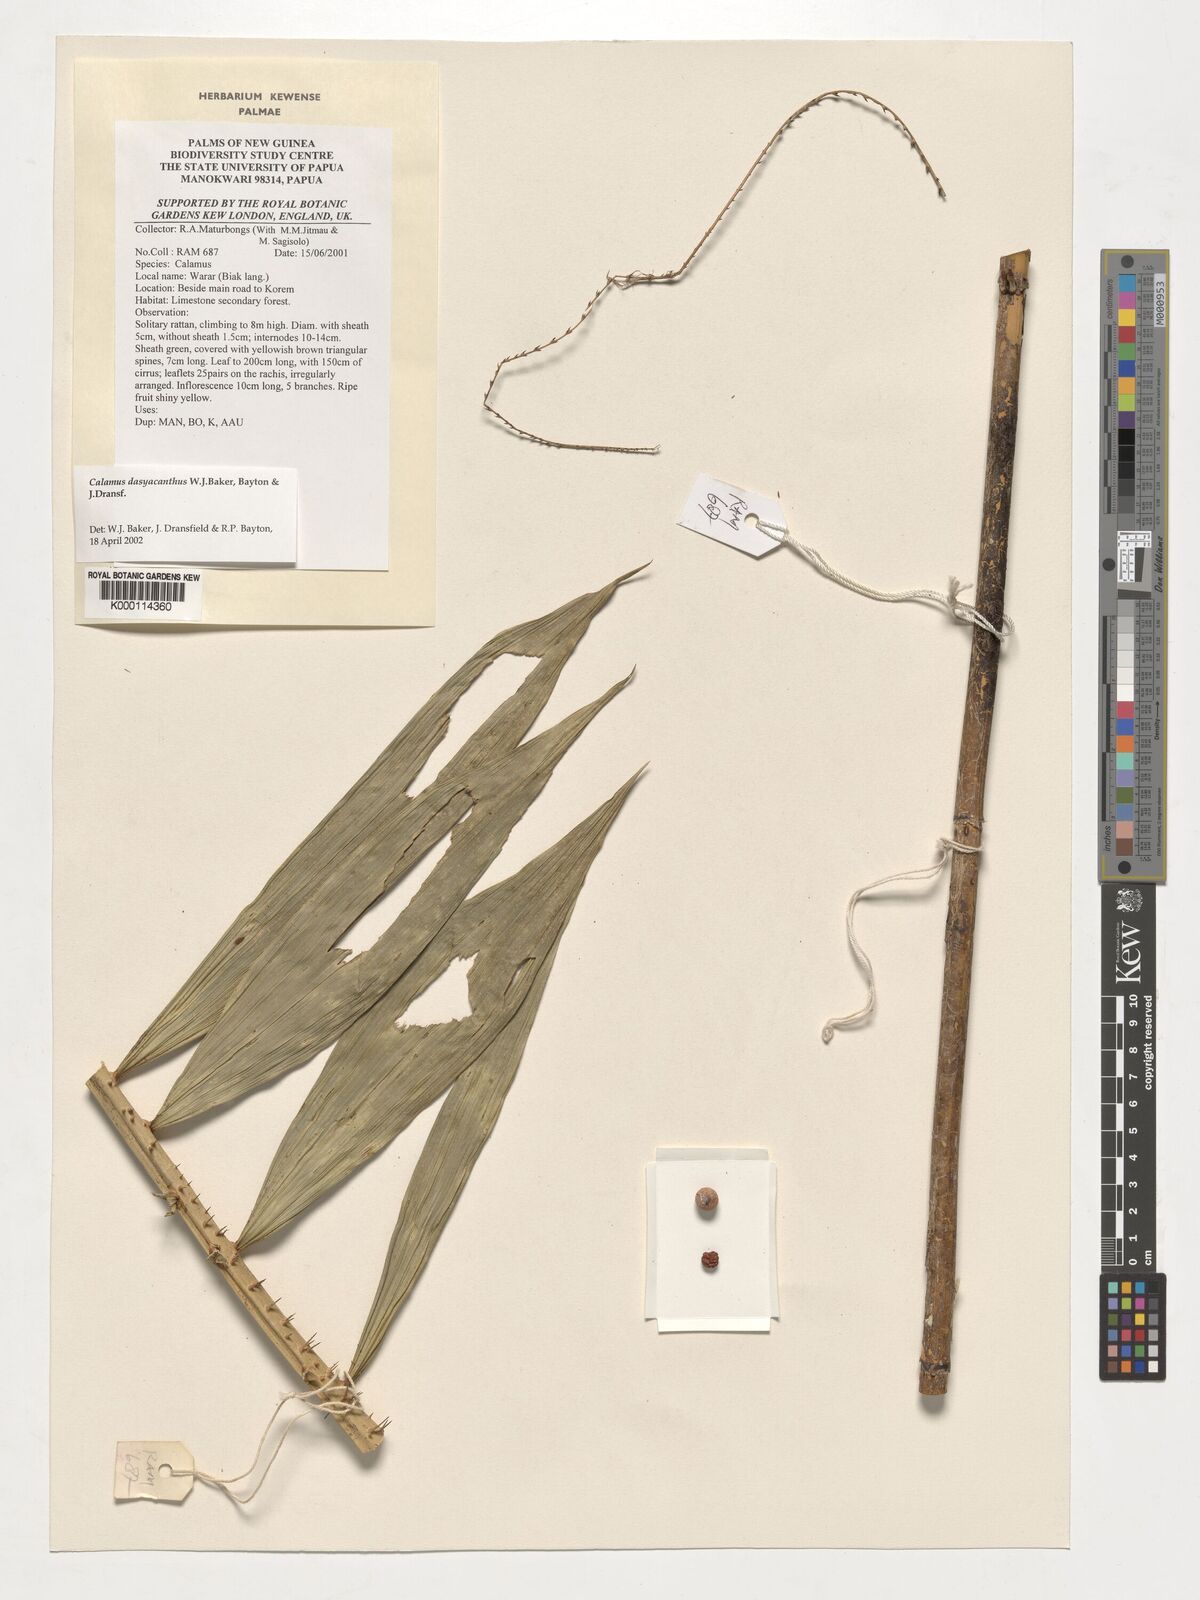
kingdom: Plantae
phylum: Tracheophyta
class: Liliopsida
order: Arecales
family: Arecaceae
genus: Calamus
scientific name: Calamus
